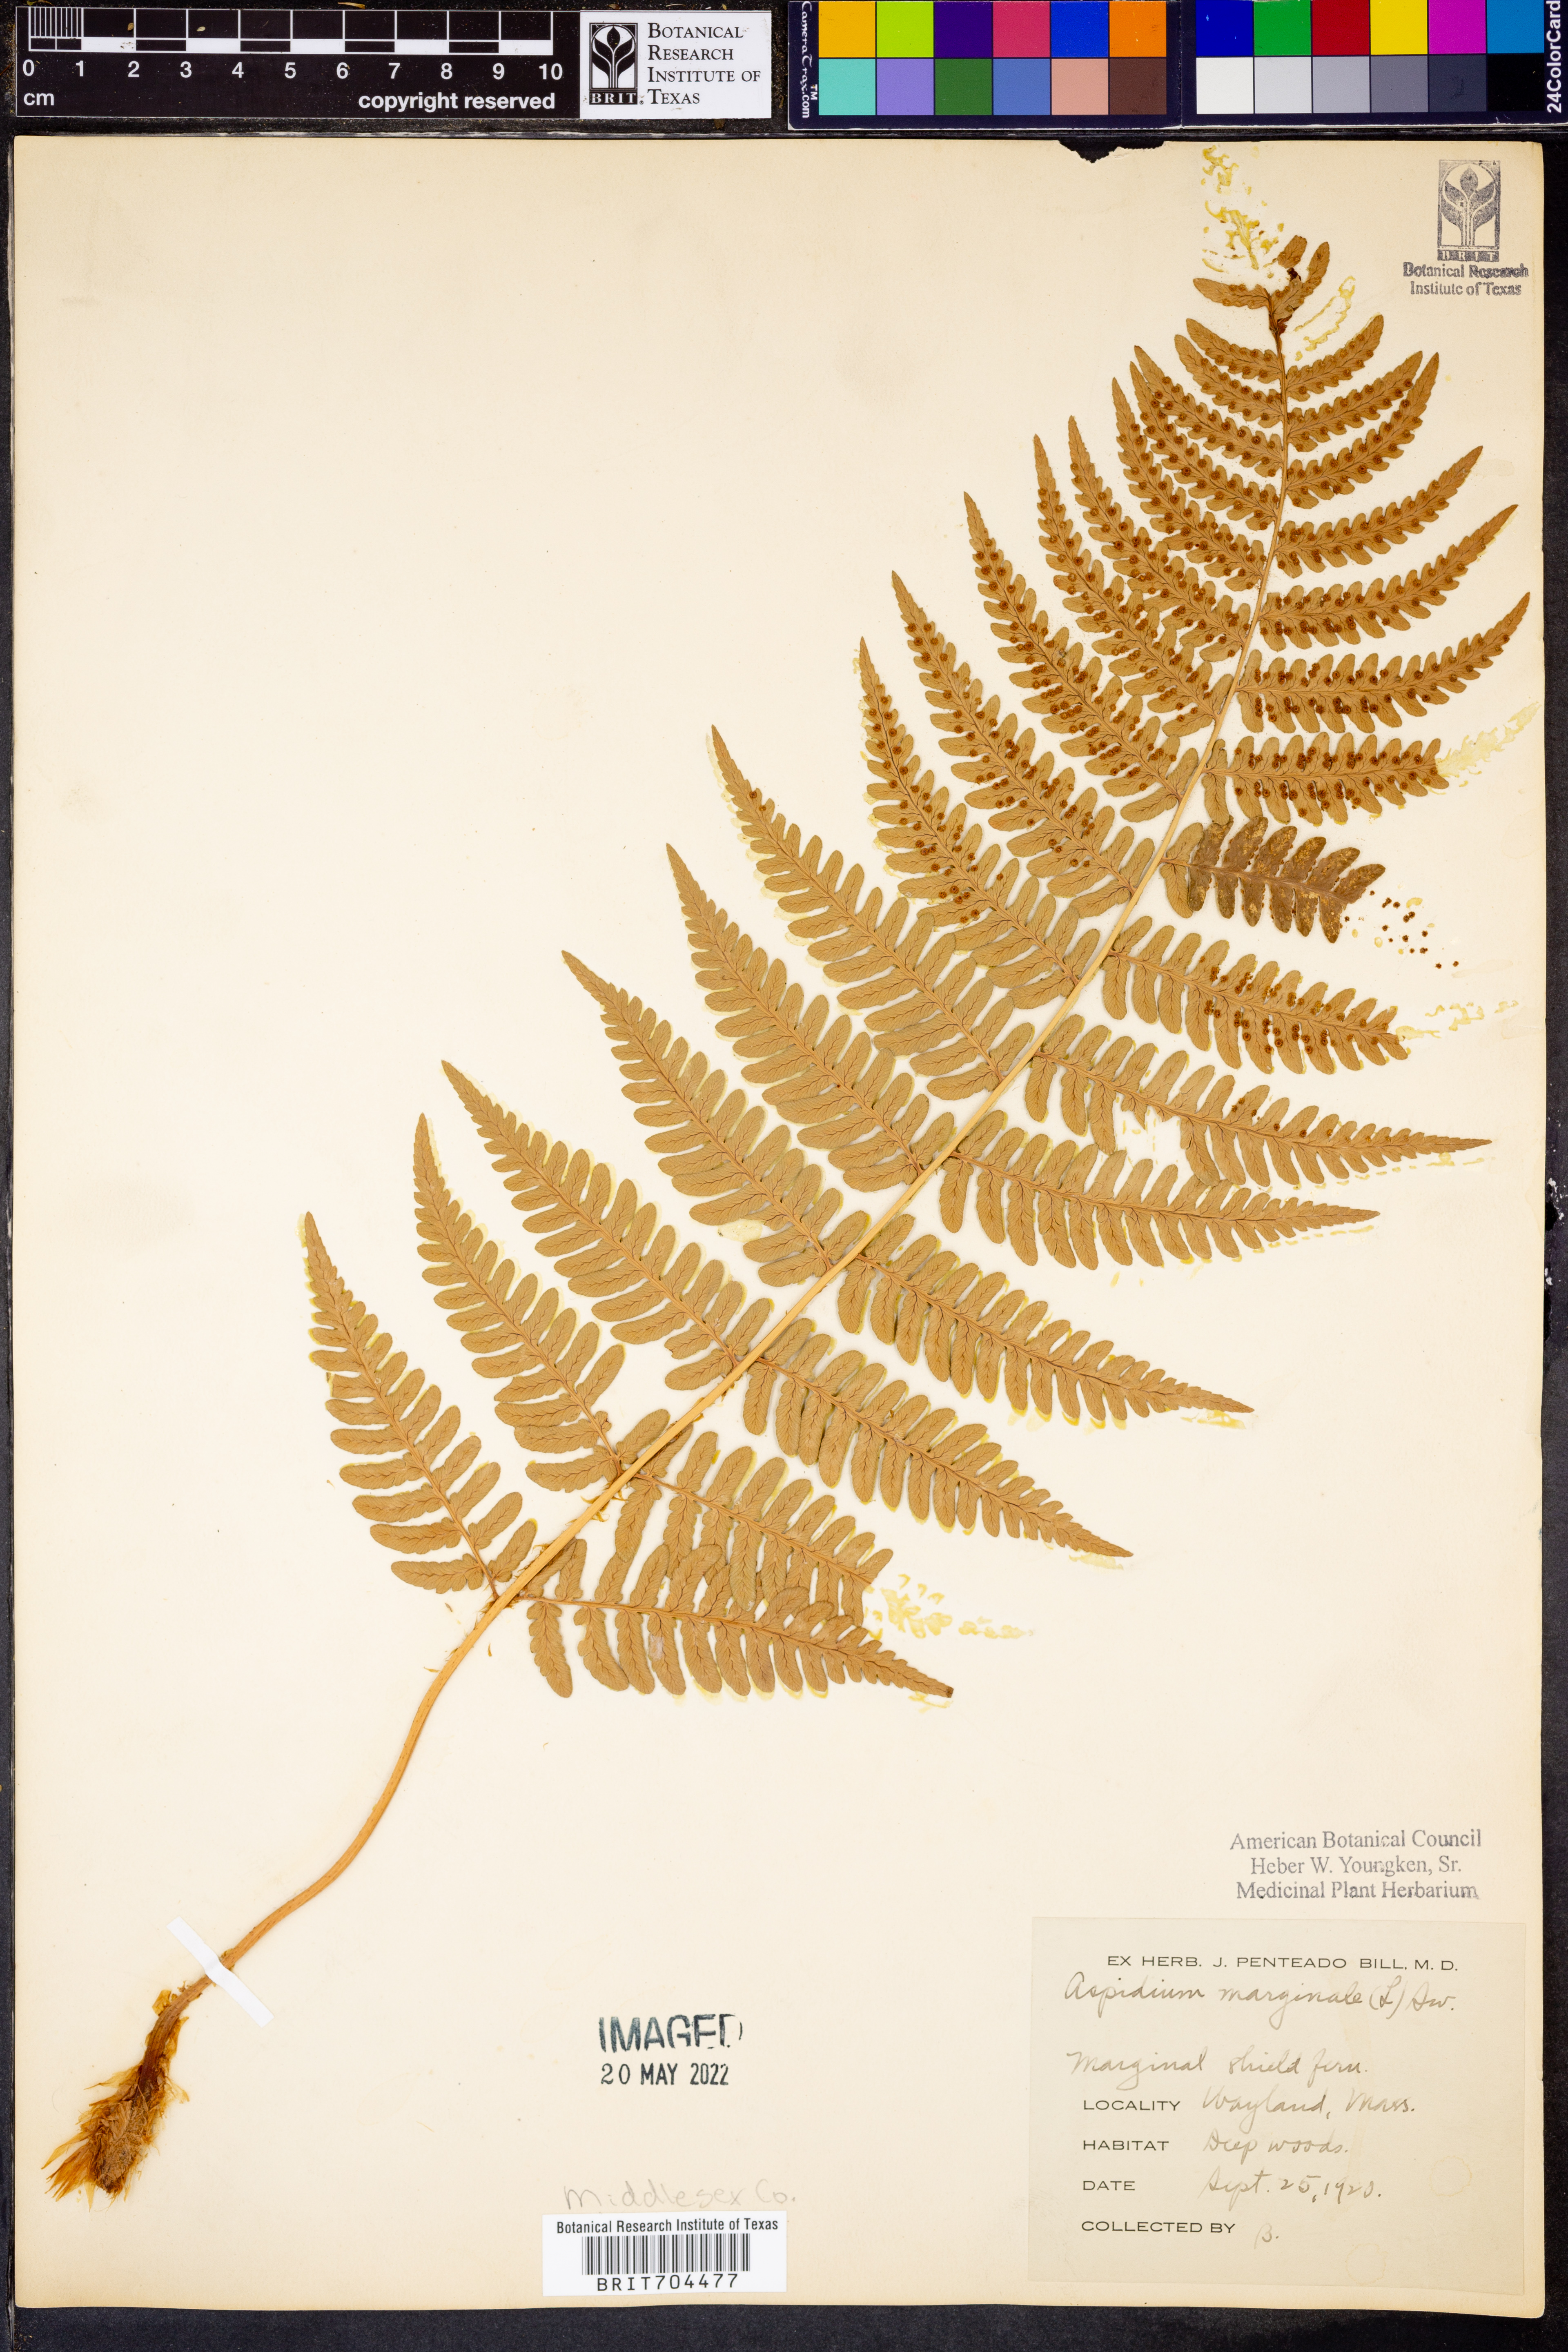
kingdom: Plantae
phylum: Tracheophyta
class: Polypodiopsida
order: Polypodiales
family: Dryopteridaceae
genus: Dryopteris
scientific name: Dryopteris marginalis
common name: Marginal wood fern
